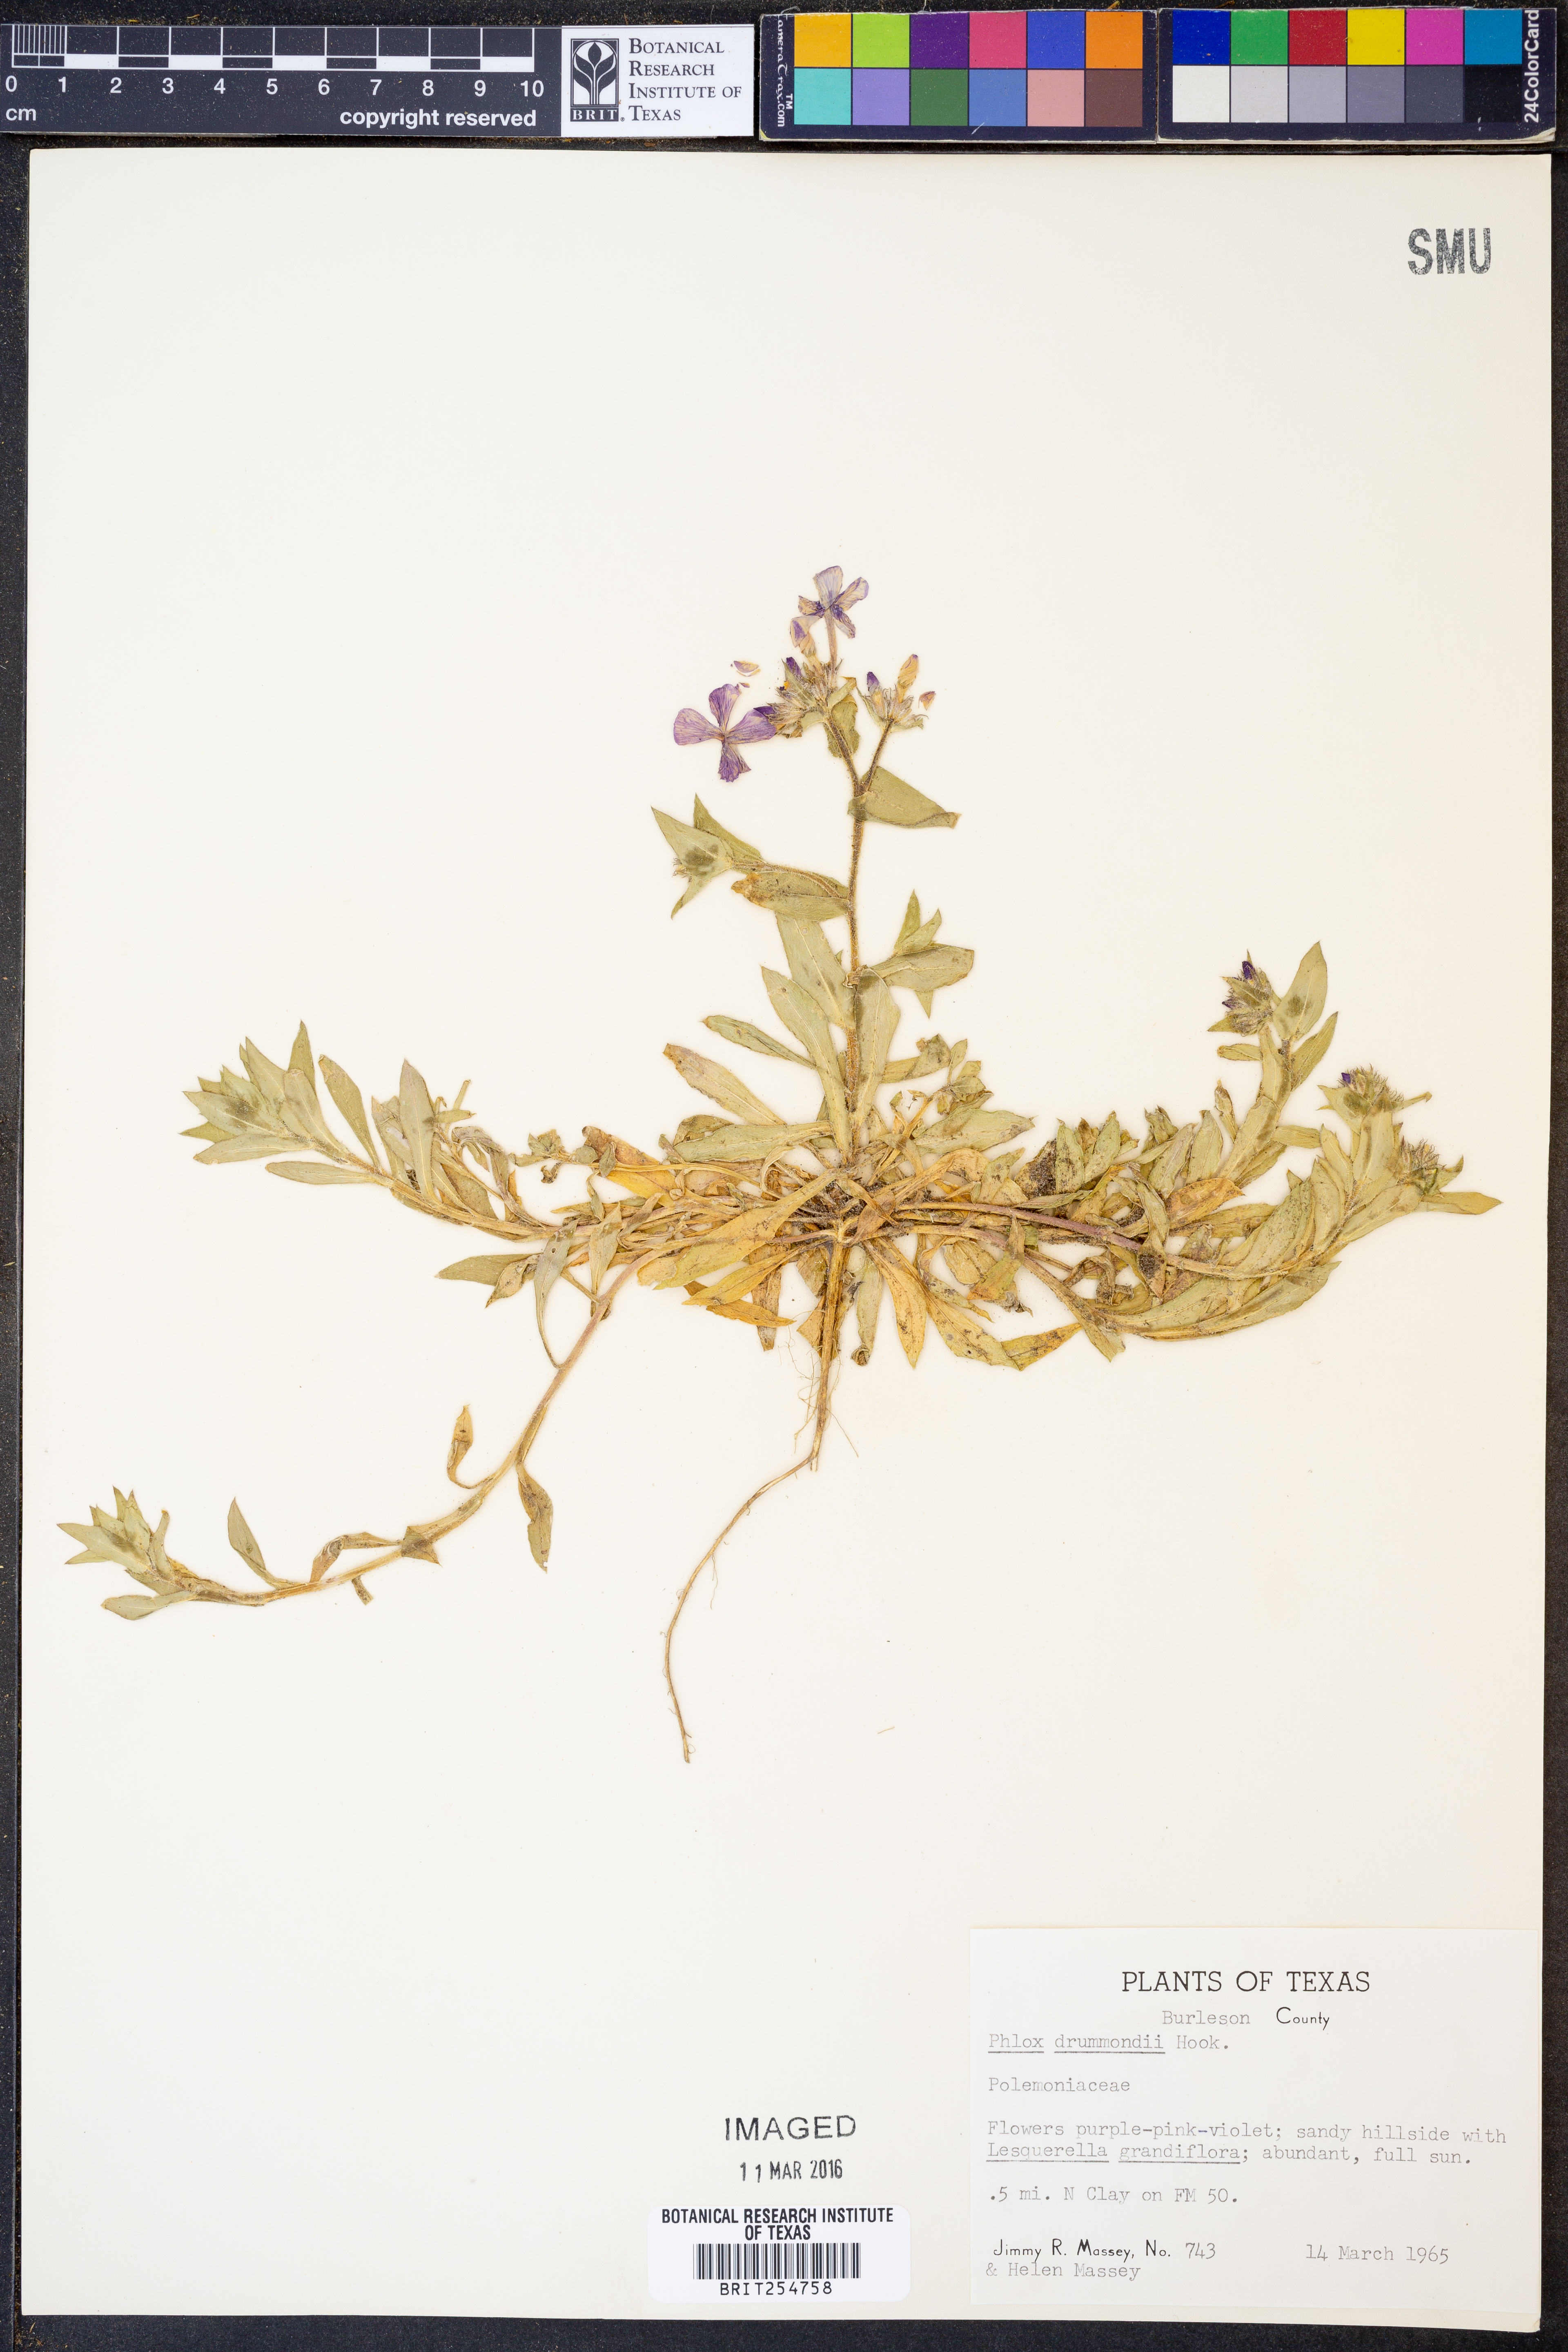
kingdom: Plantae
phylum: Tracheophyta
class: Magnoliopsida
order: Ericales
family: Polemoniaceae
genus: Phlox
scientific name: Phlox drummondii
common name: Drummond's phlox
